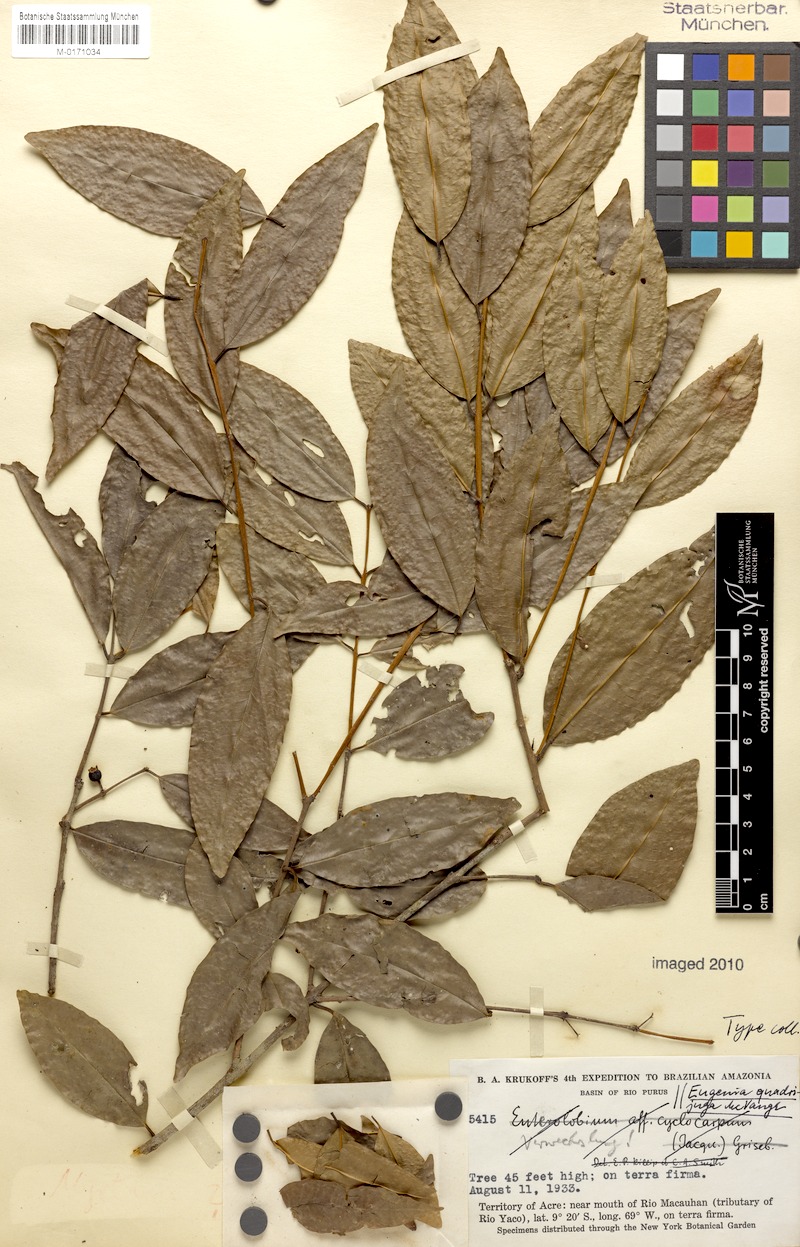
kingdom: Plantae
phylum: Tracheophyta
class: Magnoliopsida
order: Myrtales
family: Myrtaceae
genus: Eugenia
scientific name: Eugenia quadrijuga
